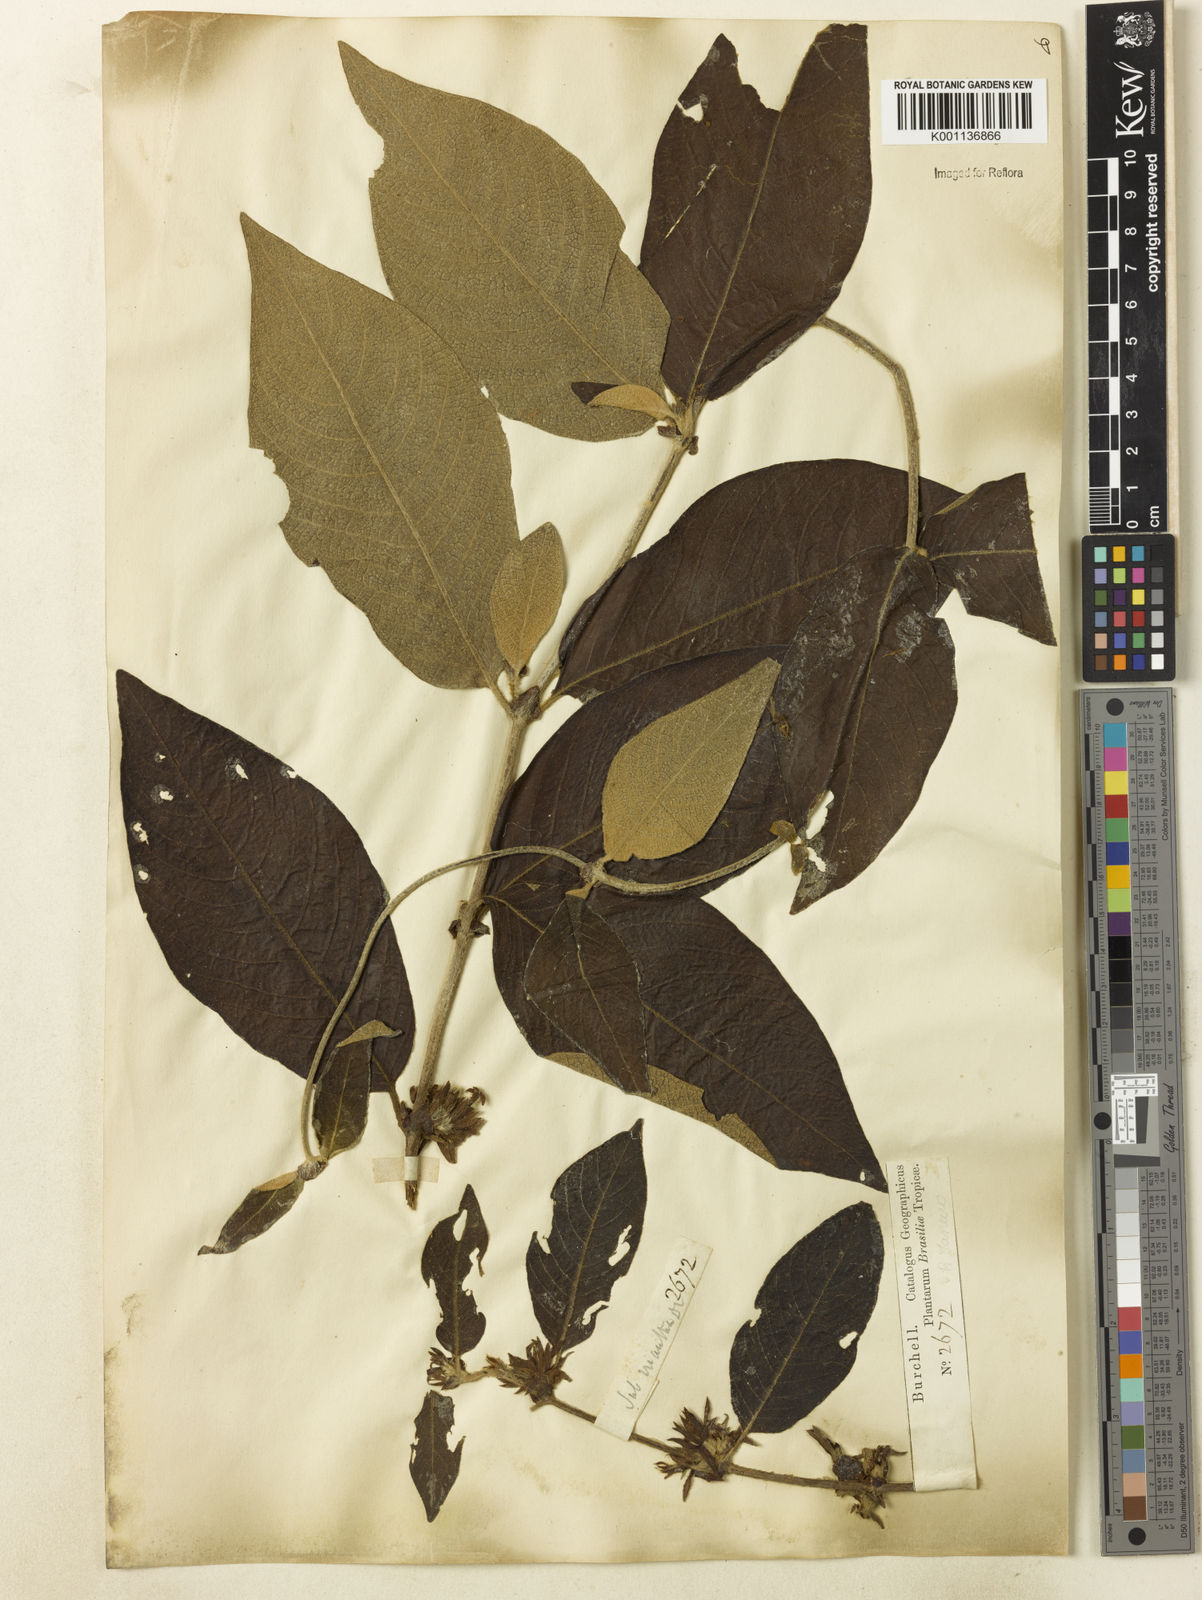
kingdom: Plantae
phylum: Tracheophyta
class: Magnoliopsida
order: Gentianales
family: Rubiaceae
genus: Sabicea
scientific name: Sabicea grisea
